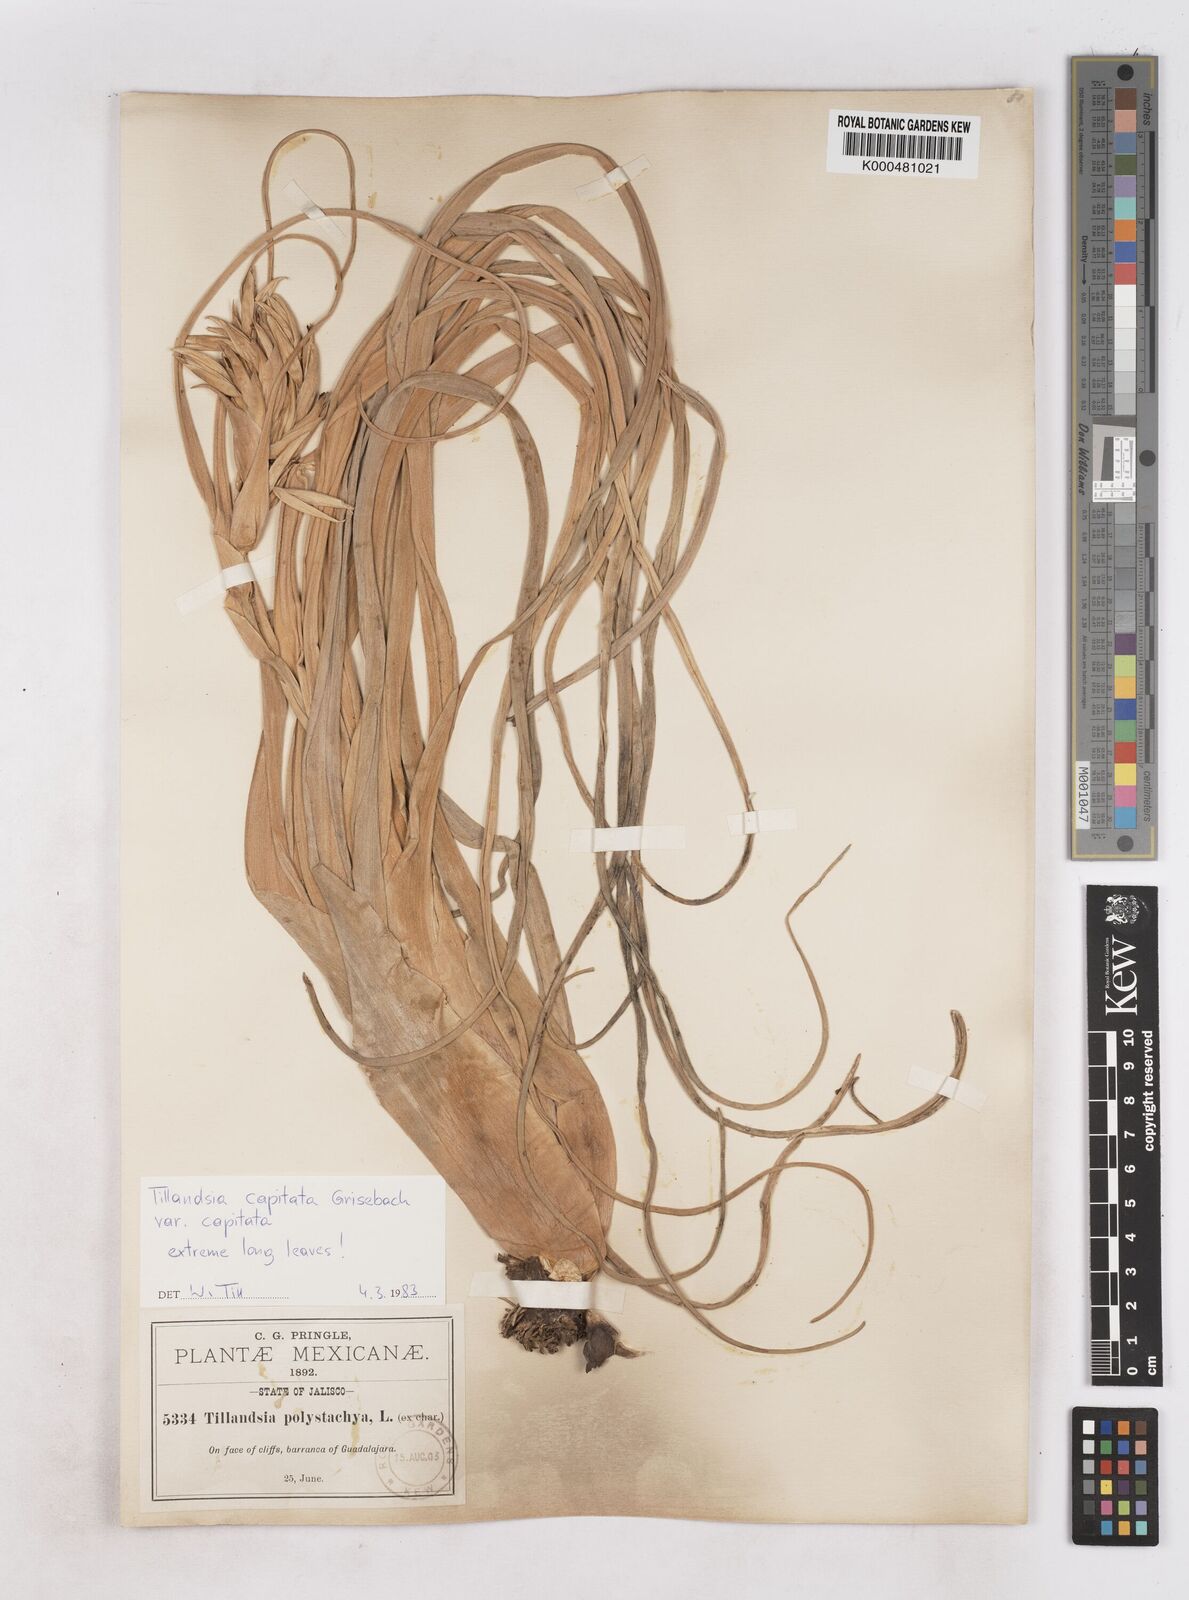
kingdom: Plantae
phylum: Tracheophyta
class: Liliopsida
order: Poales
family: Bromeliaceae
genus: Tillandsia
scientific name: Tillandsia
